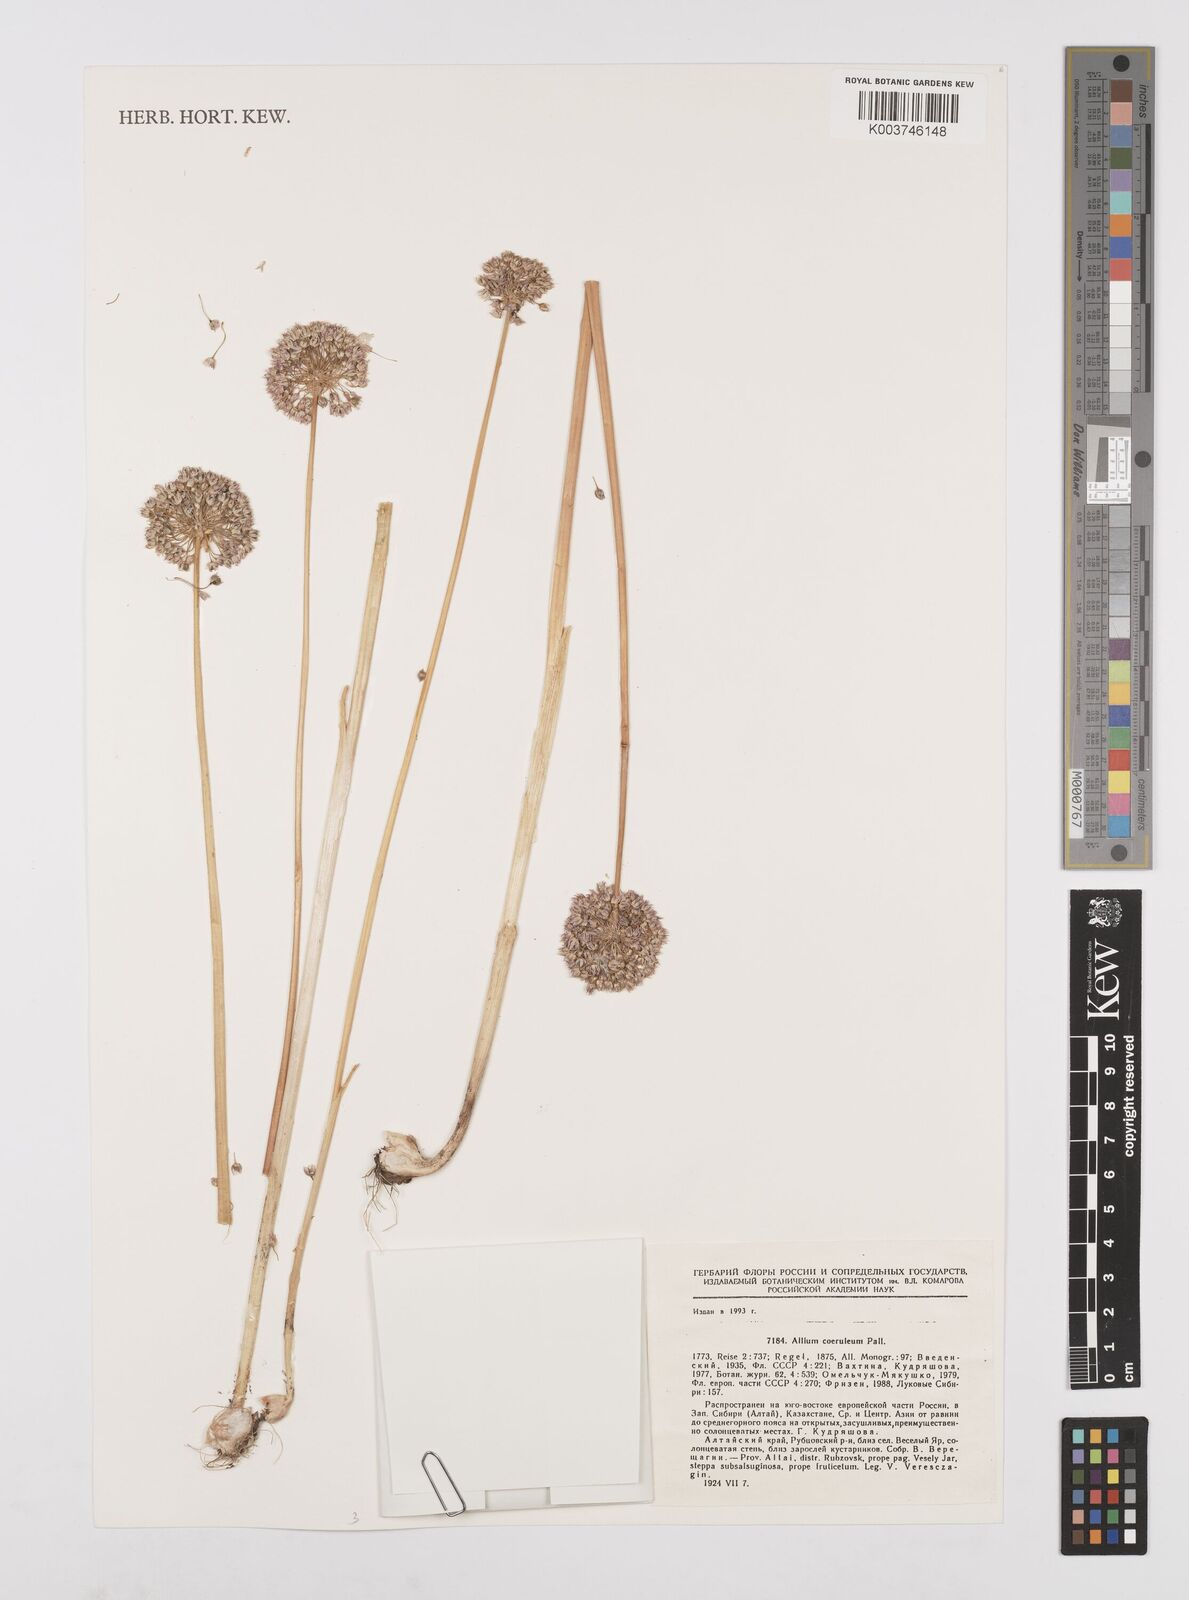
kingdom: Plantae
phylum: Tracheophyta
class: Liliopsida
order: Asparagales
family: Amaryllidaceae
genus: Allium
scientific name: Allium caeruleum
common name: Blue-of-the-heavens
